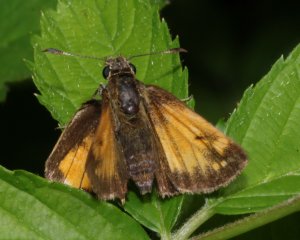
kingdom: Animalia
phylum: Arthropoda
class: Insecta
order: Lepidoptera
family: Hesperiidae
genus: Lon
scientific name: Lon hobomok
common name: Hobomok Skipper
